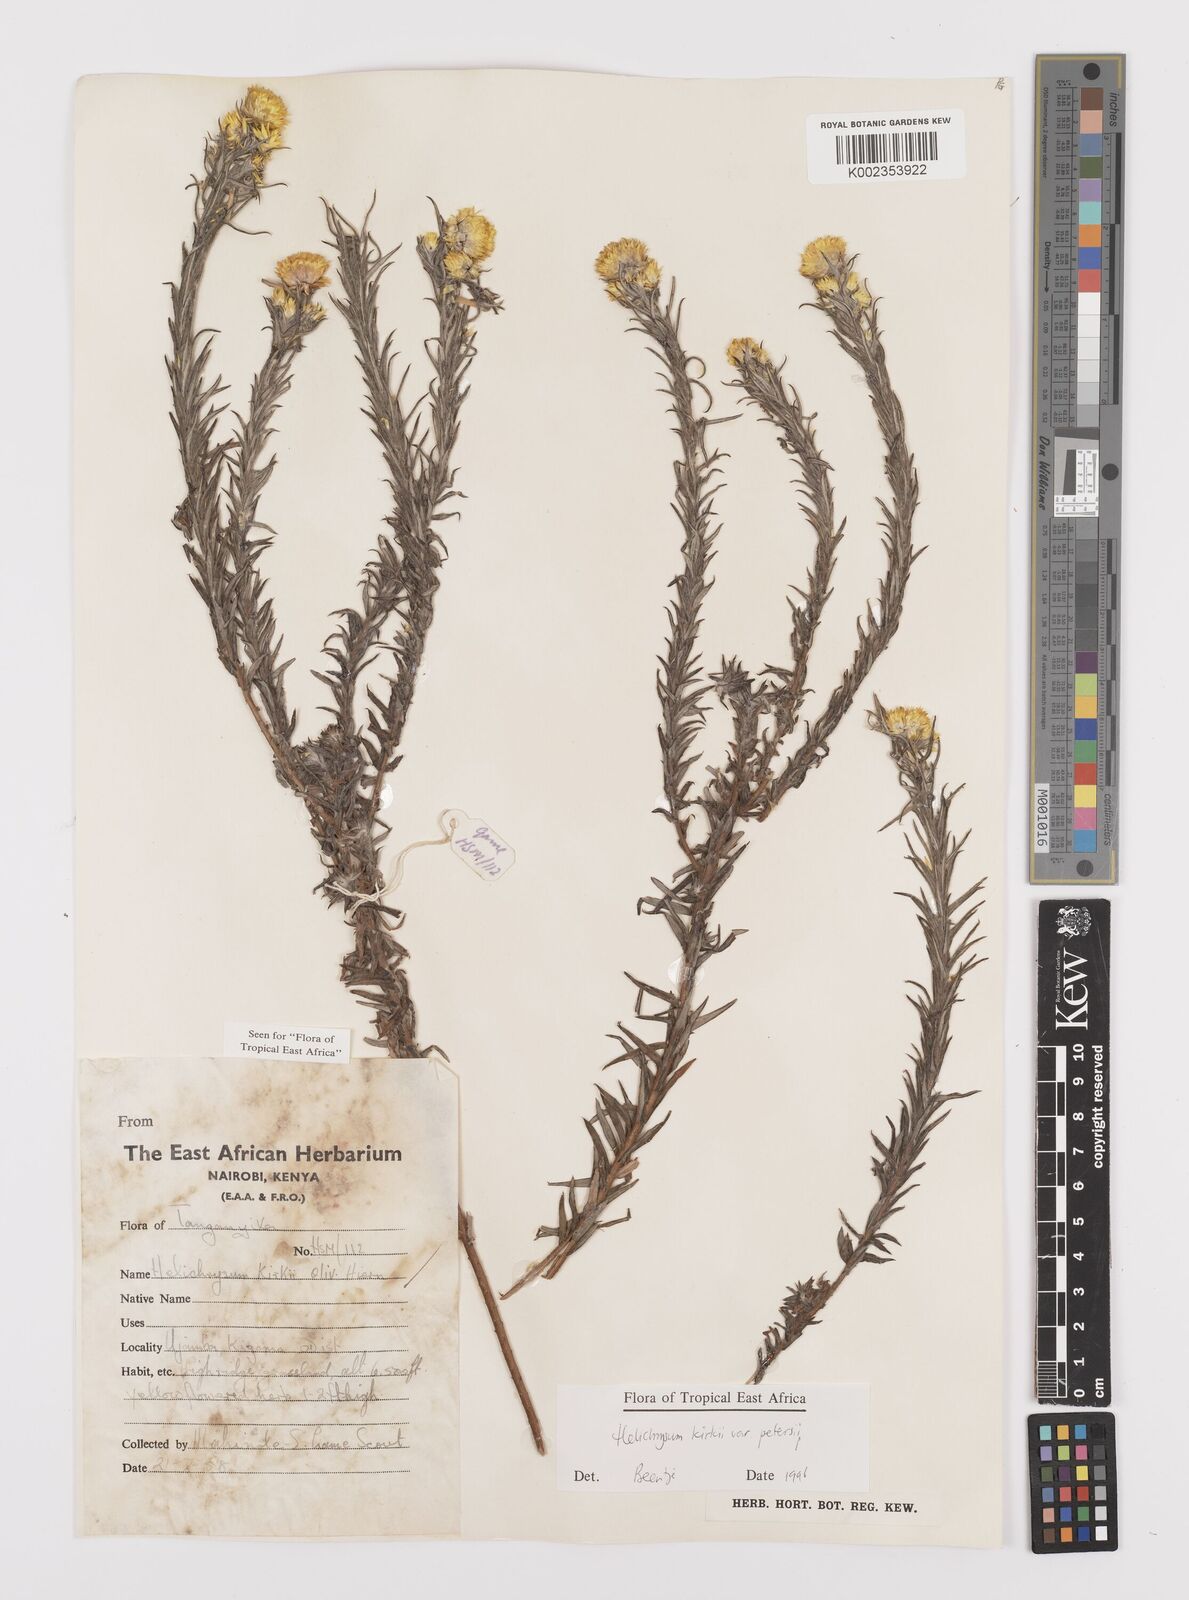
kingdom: Plantae
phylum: Tracheophyta
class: Magnoliopsida
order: Asterales
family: Asteraceae
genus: Helichrysum
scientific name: Helichrysum kirkii
